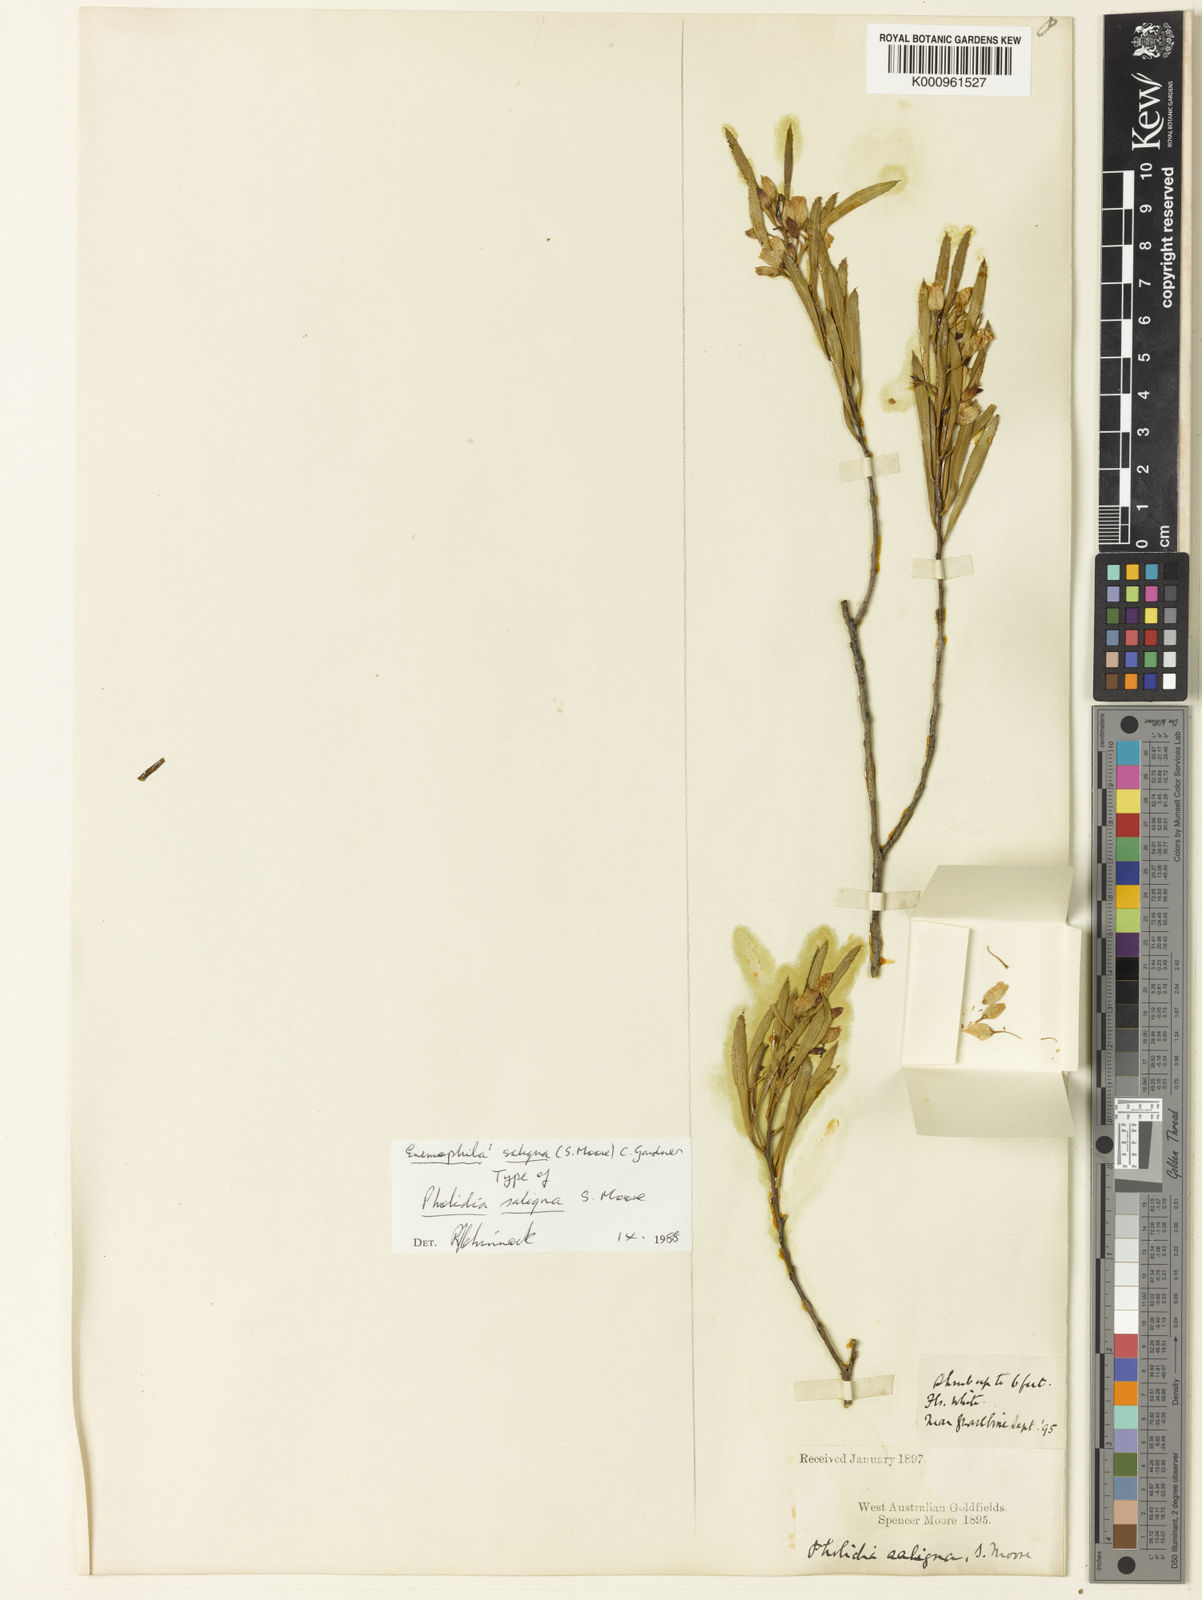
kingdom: Plantae
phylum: Tracheophyta
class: Magnoliopsida
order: Lamiales
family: Scrophulariaceae
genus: Eremophila
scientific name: Eremophila saligna
